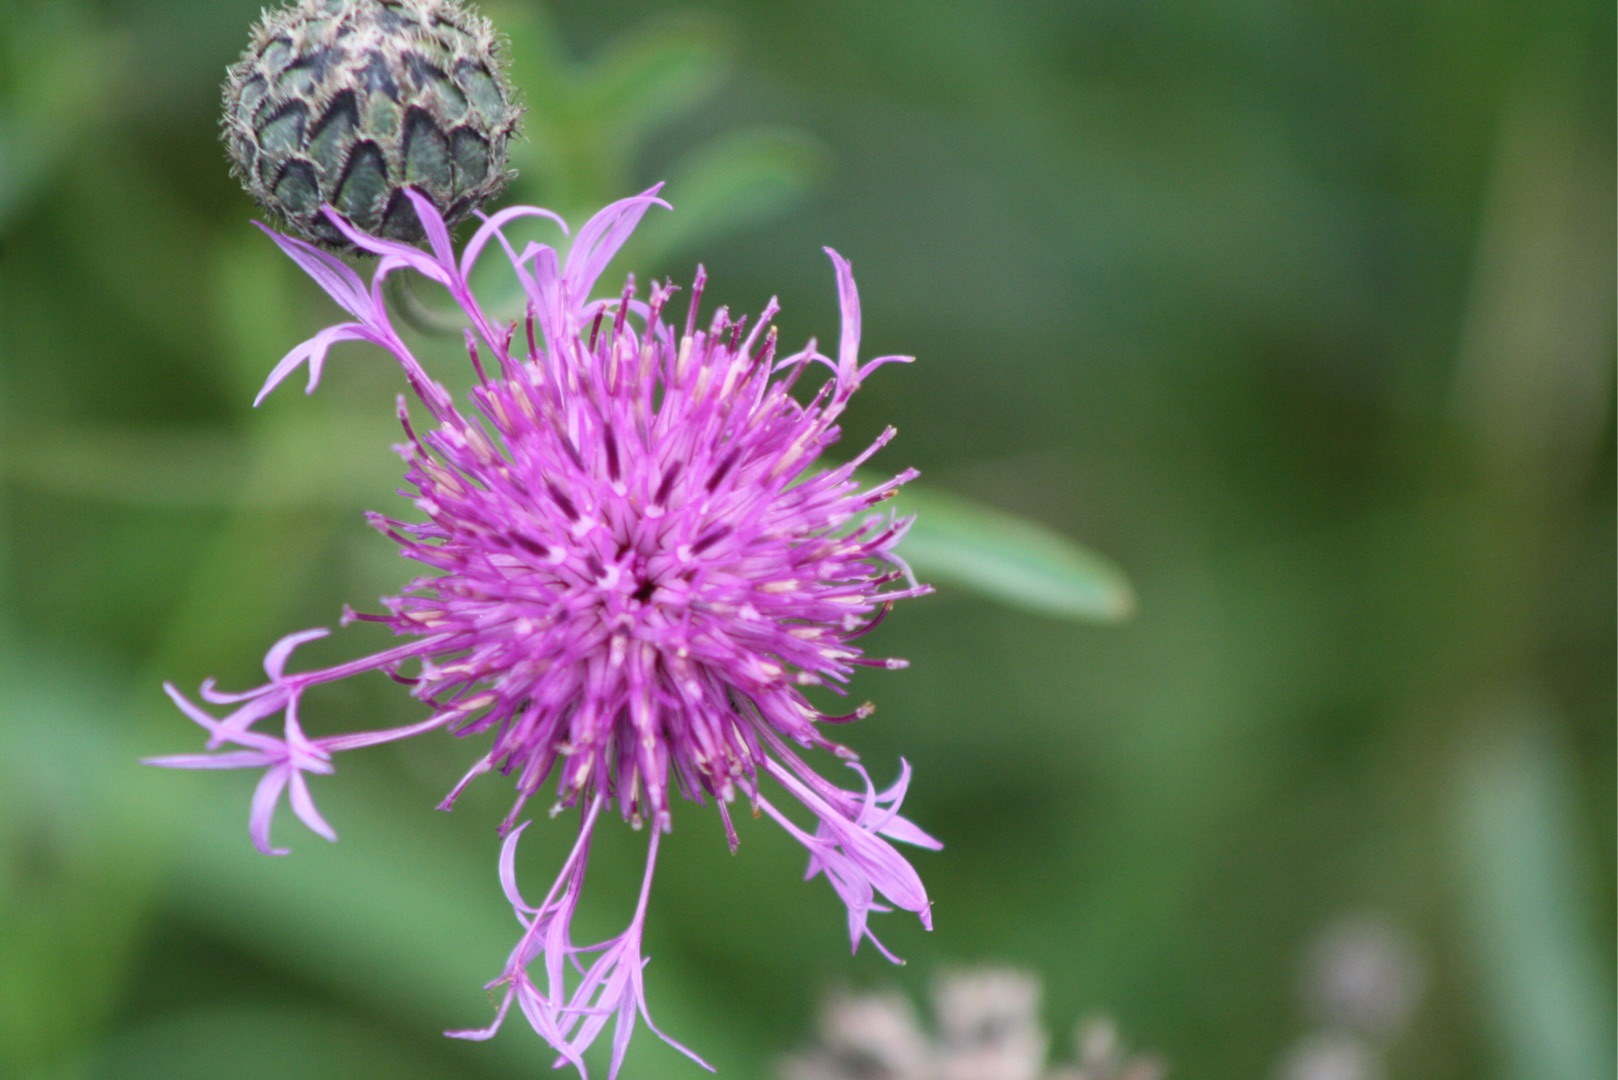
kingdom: Plantae
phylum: Tracheophyta
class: Magnoliopsida
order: Asterales
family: Asteraceae
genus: Centaurea
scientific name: Centaurea scabiosa
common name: Stor knopurt
